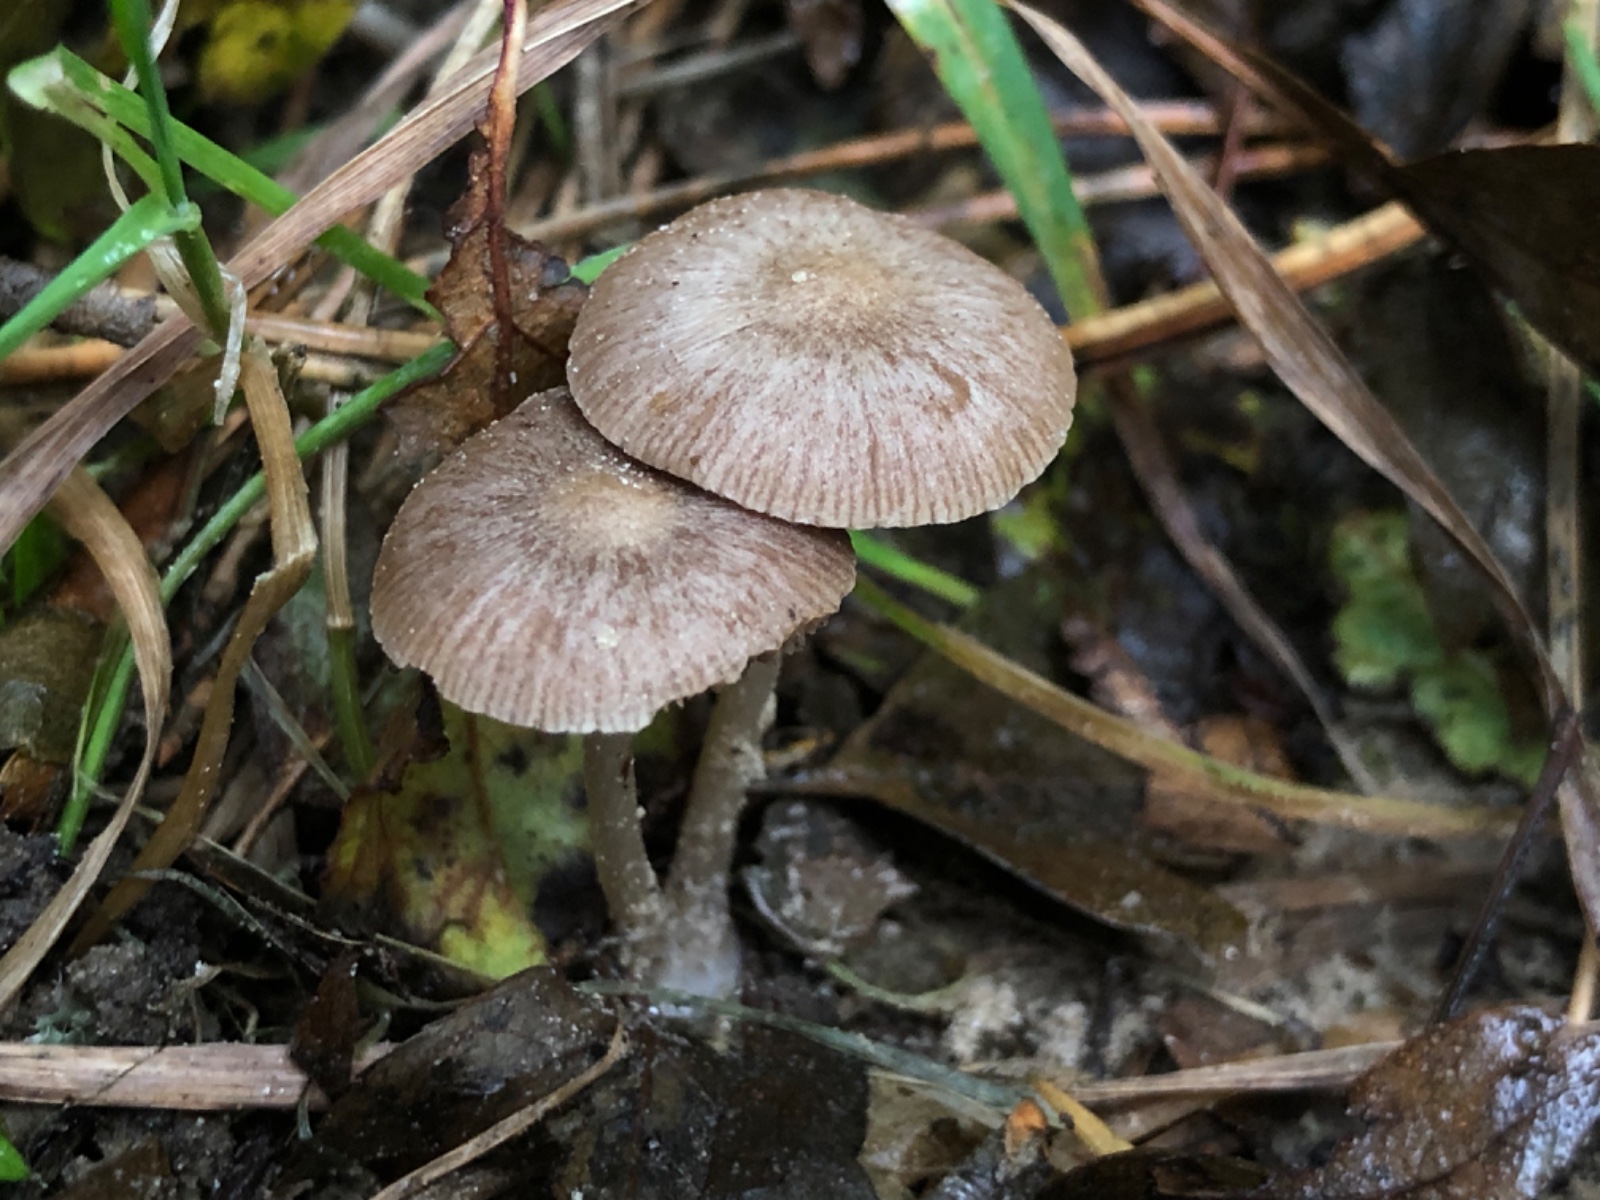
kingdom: Fungi
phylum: Basidiomycota
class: Agaricomycetes
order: Agaricales
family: Psathyrellaceae
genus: Psathyrella
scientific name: Psathyrella ammophila
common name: klit-mørkhat
